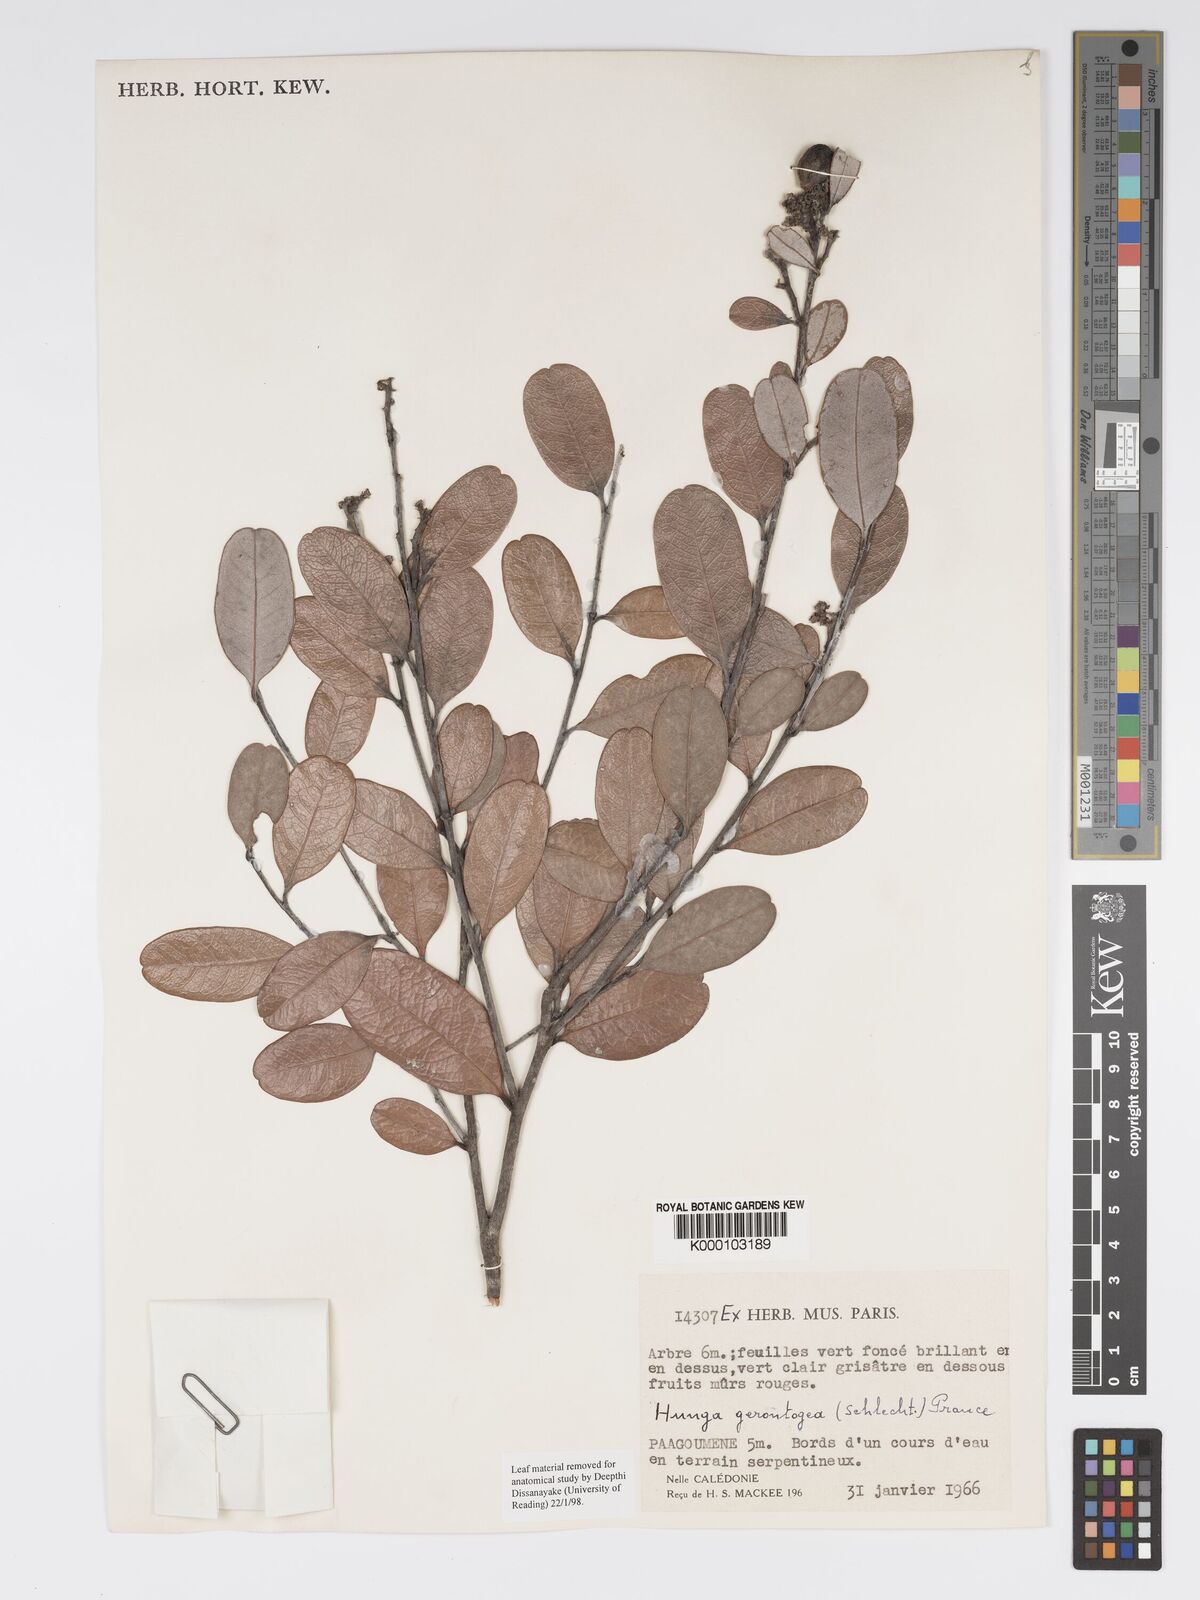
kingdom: Plantae
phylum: Tracheophyta
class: Magnoliopsida
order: Malpighiales
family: Chrysobalanaceae
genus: Hunga
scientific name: Hunga gerontogea
